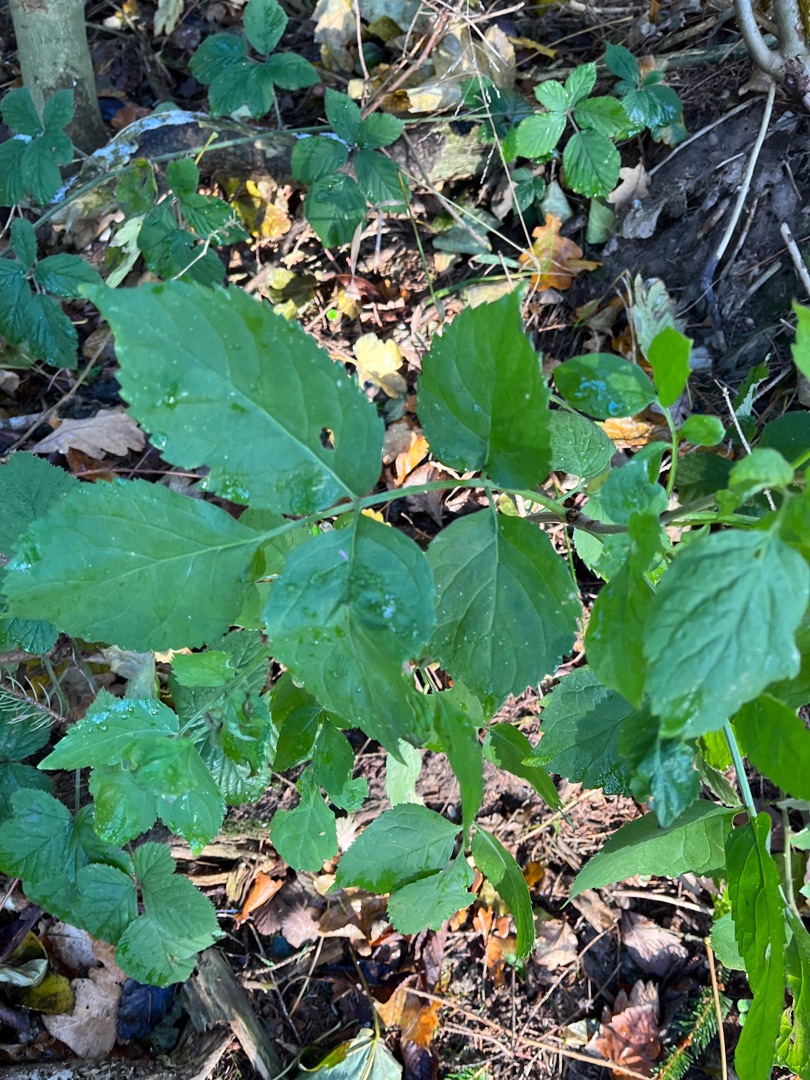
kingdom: Plantae
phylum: Tracheophyta
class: Magnoliopsida
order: Dipsacales
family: Viburnaceae
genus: Sambucus
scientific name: Sambucus nigra
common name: Almindelig hyld
